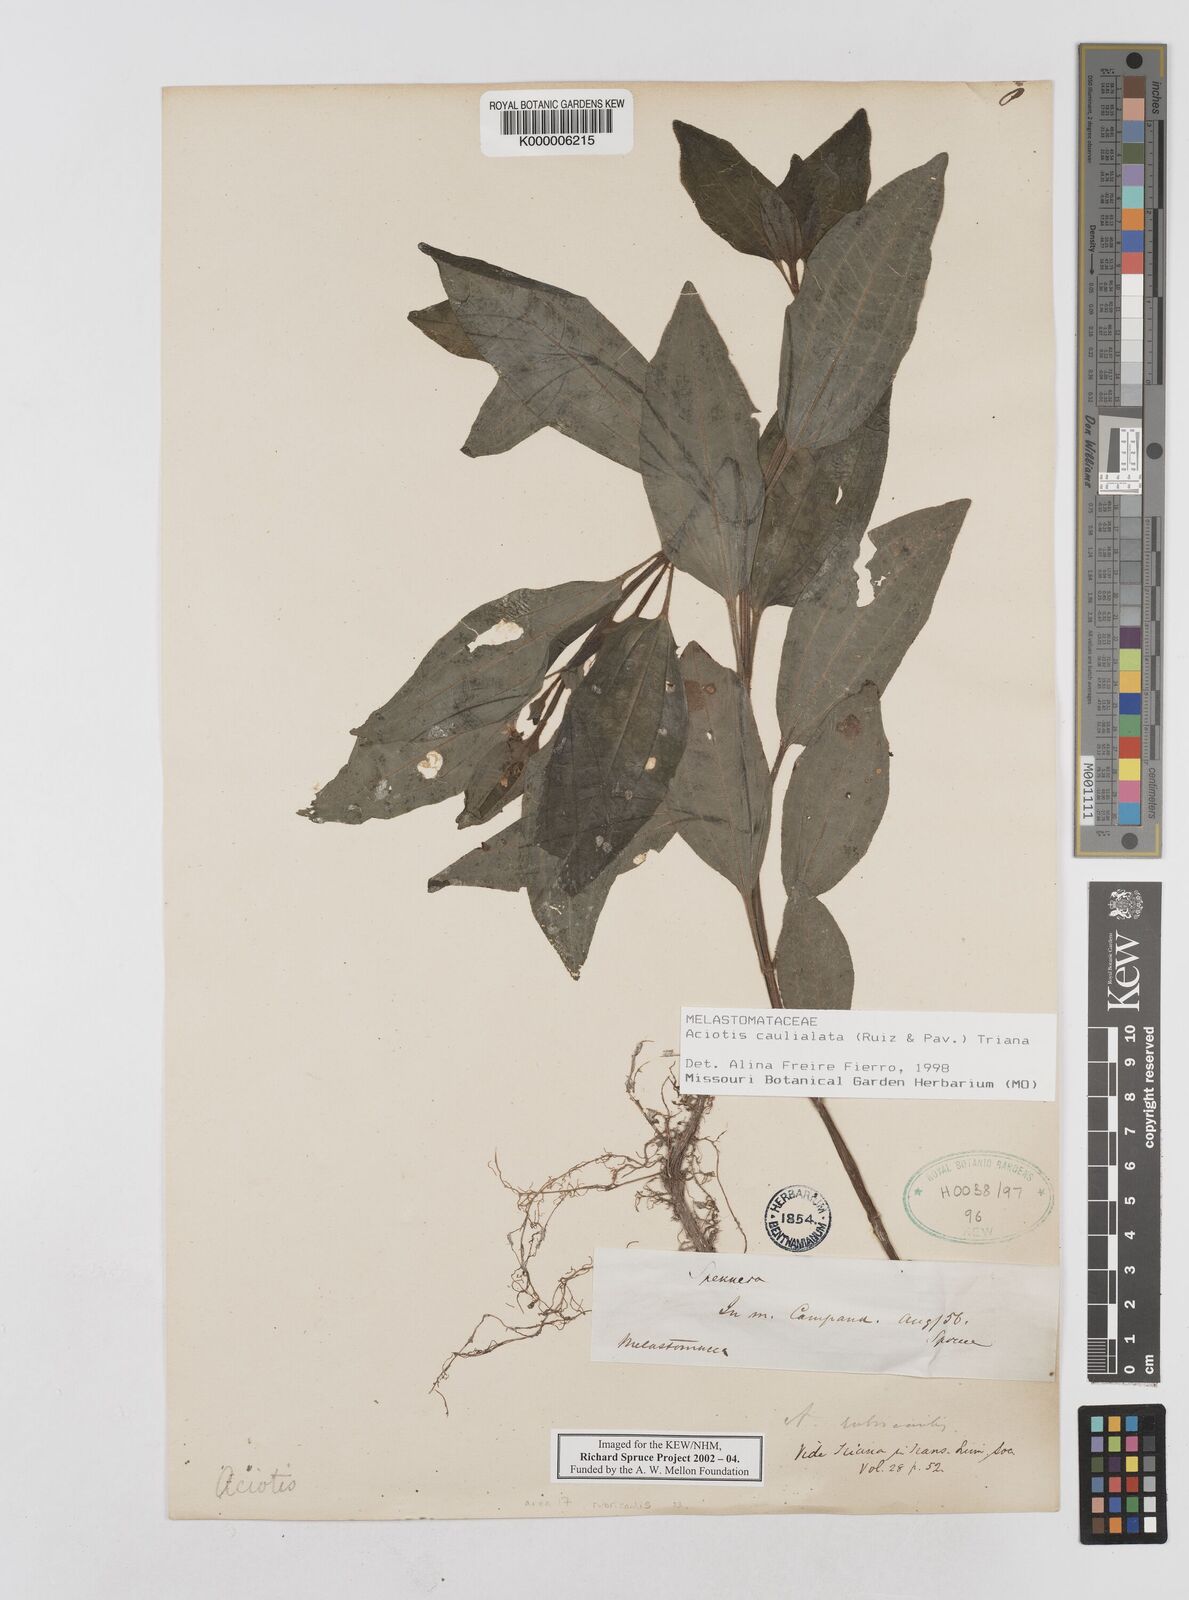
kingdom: Plantae
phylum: Tracheophyta
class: Magnoliopsida
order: Myrtales
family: Melastomataceae
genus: Aciotis
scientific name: Aciotis rubricaulis
